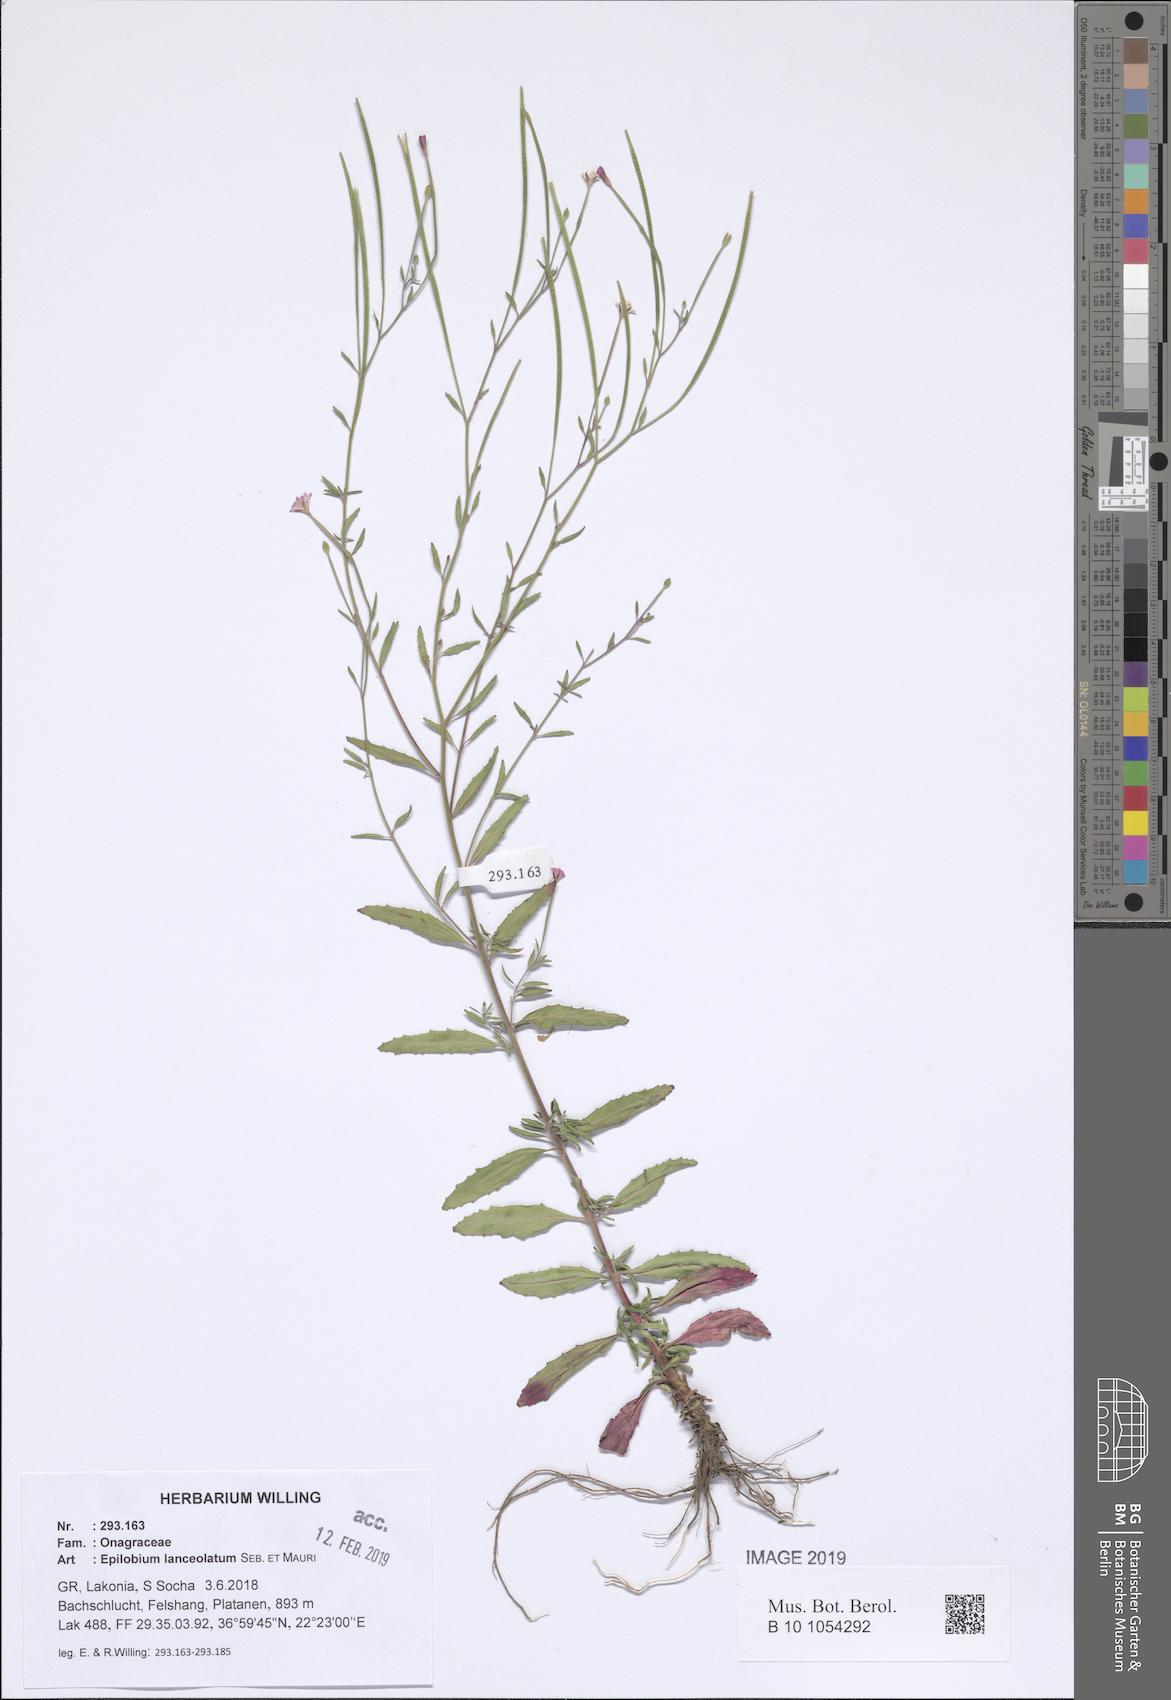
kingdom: Plantae
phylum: Tracheophyta
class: Magnoliopsida
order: Myrtales
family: Onagraceae
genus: Epilobium
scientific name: Epilobium lanceolatum
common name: Spear-leaved willowherb
